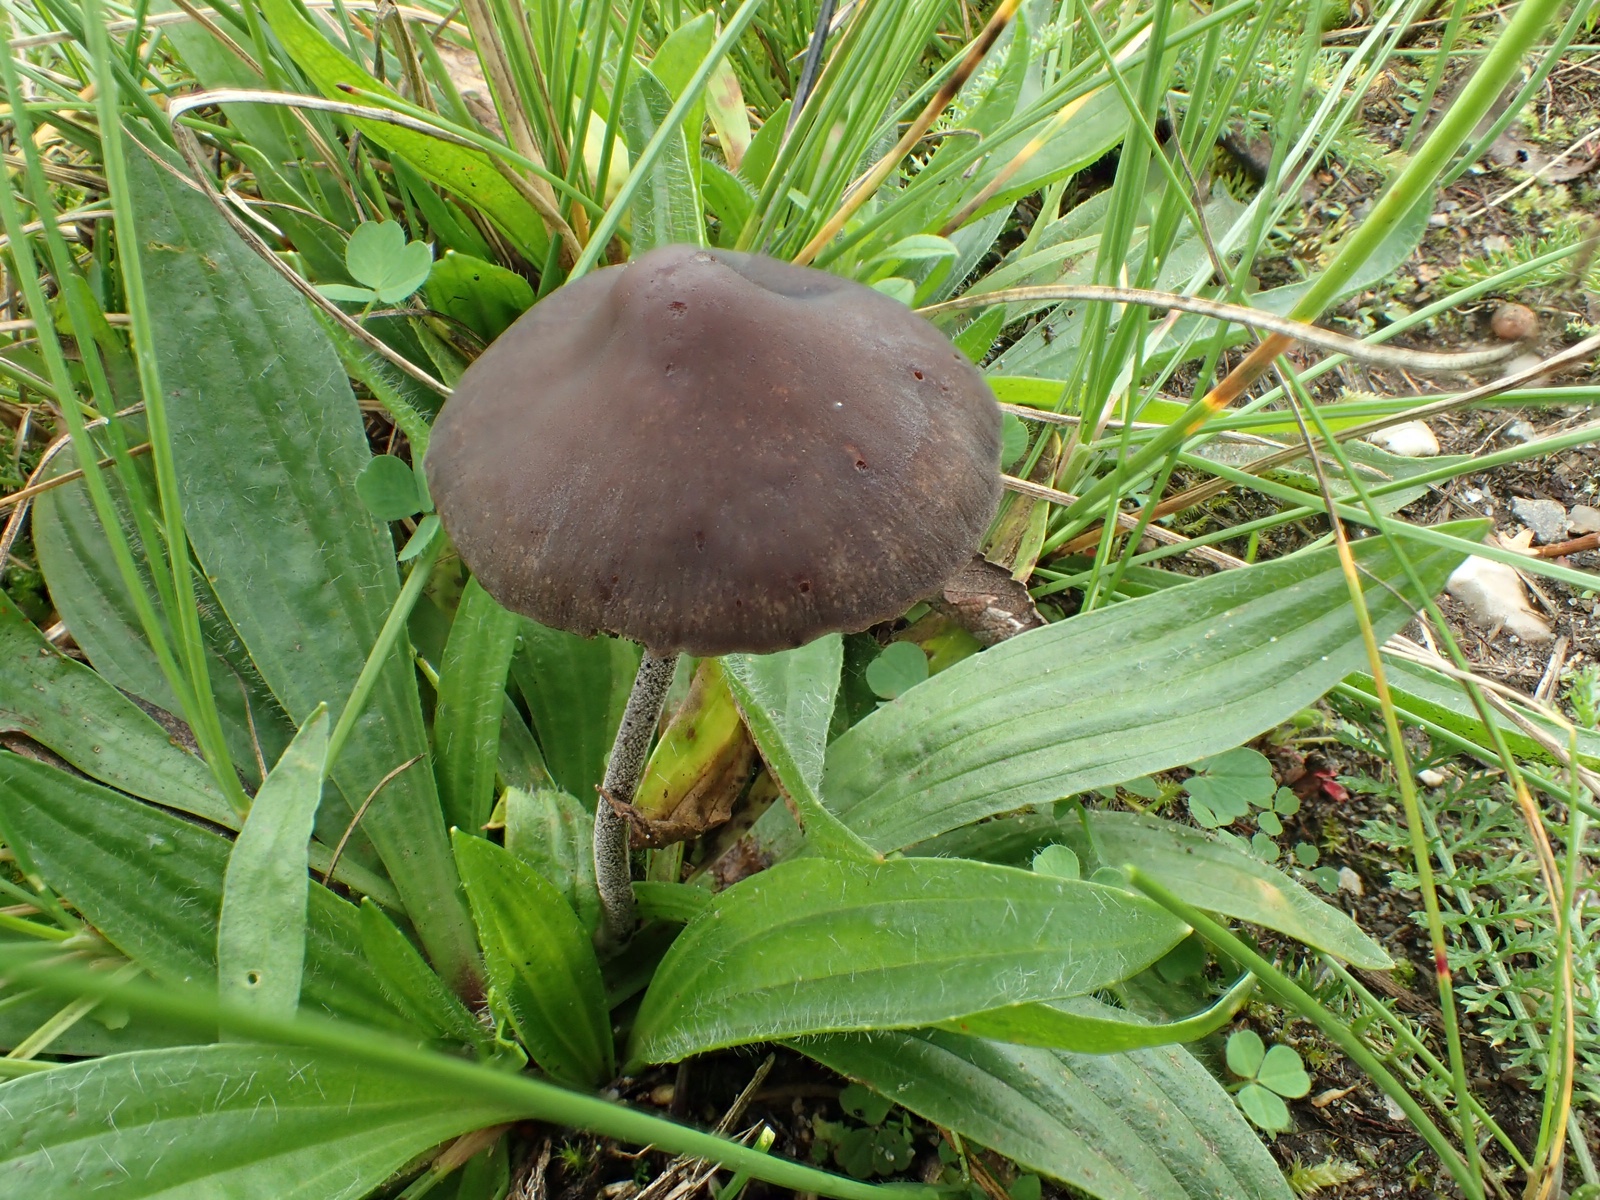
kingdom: Fungi
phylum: Basidiomycota
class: Agaricomycetes
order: Agaricales
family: Bolbitiaceae
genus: Panaeolus
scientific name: Panaeolus
